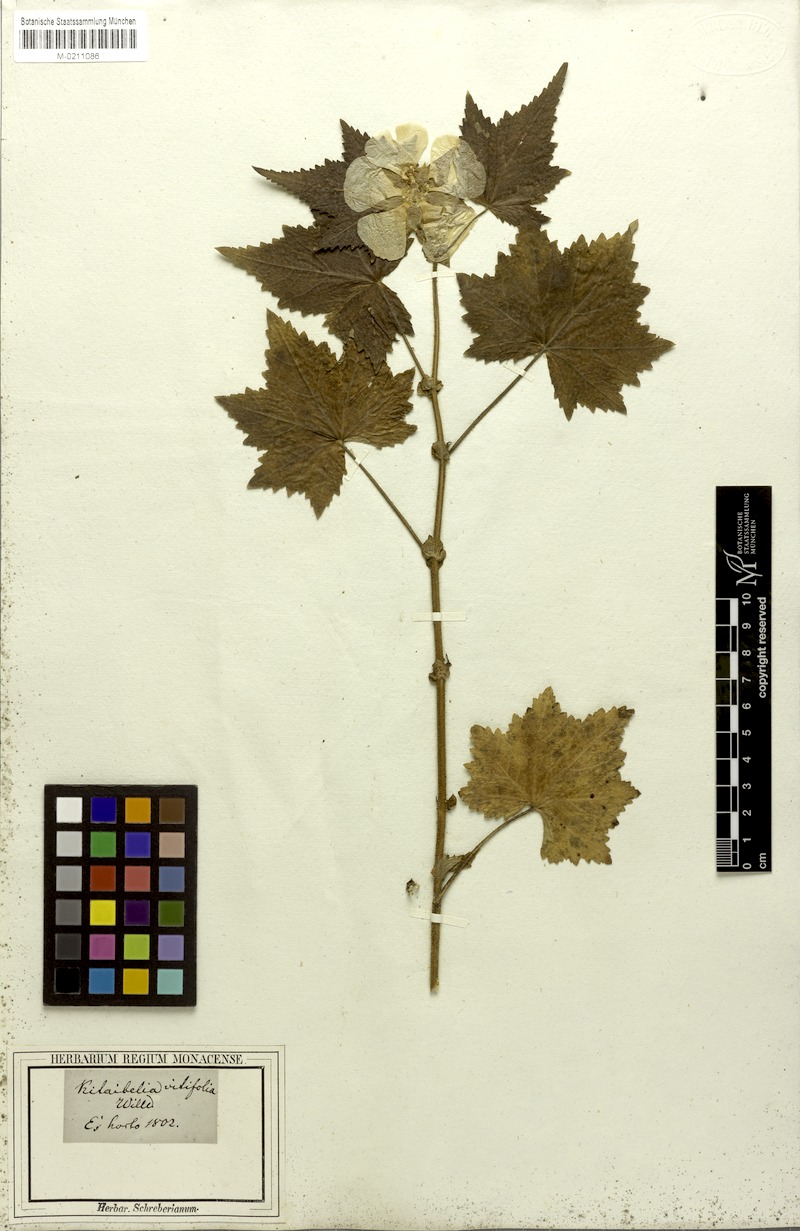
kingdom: Plantae
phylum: Tracheophyta
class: Magnoliopsida
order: Malvales
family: Malvaceae
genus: Kitaibela
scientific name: Kitaibela vitifolia
